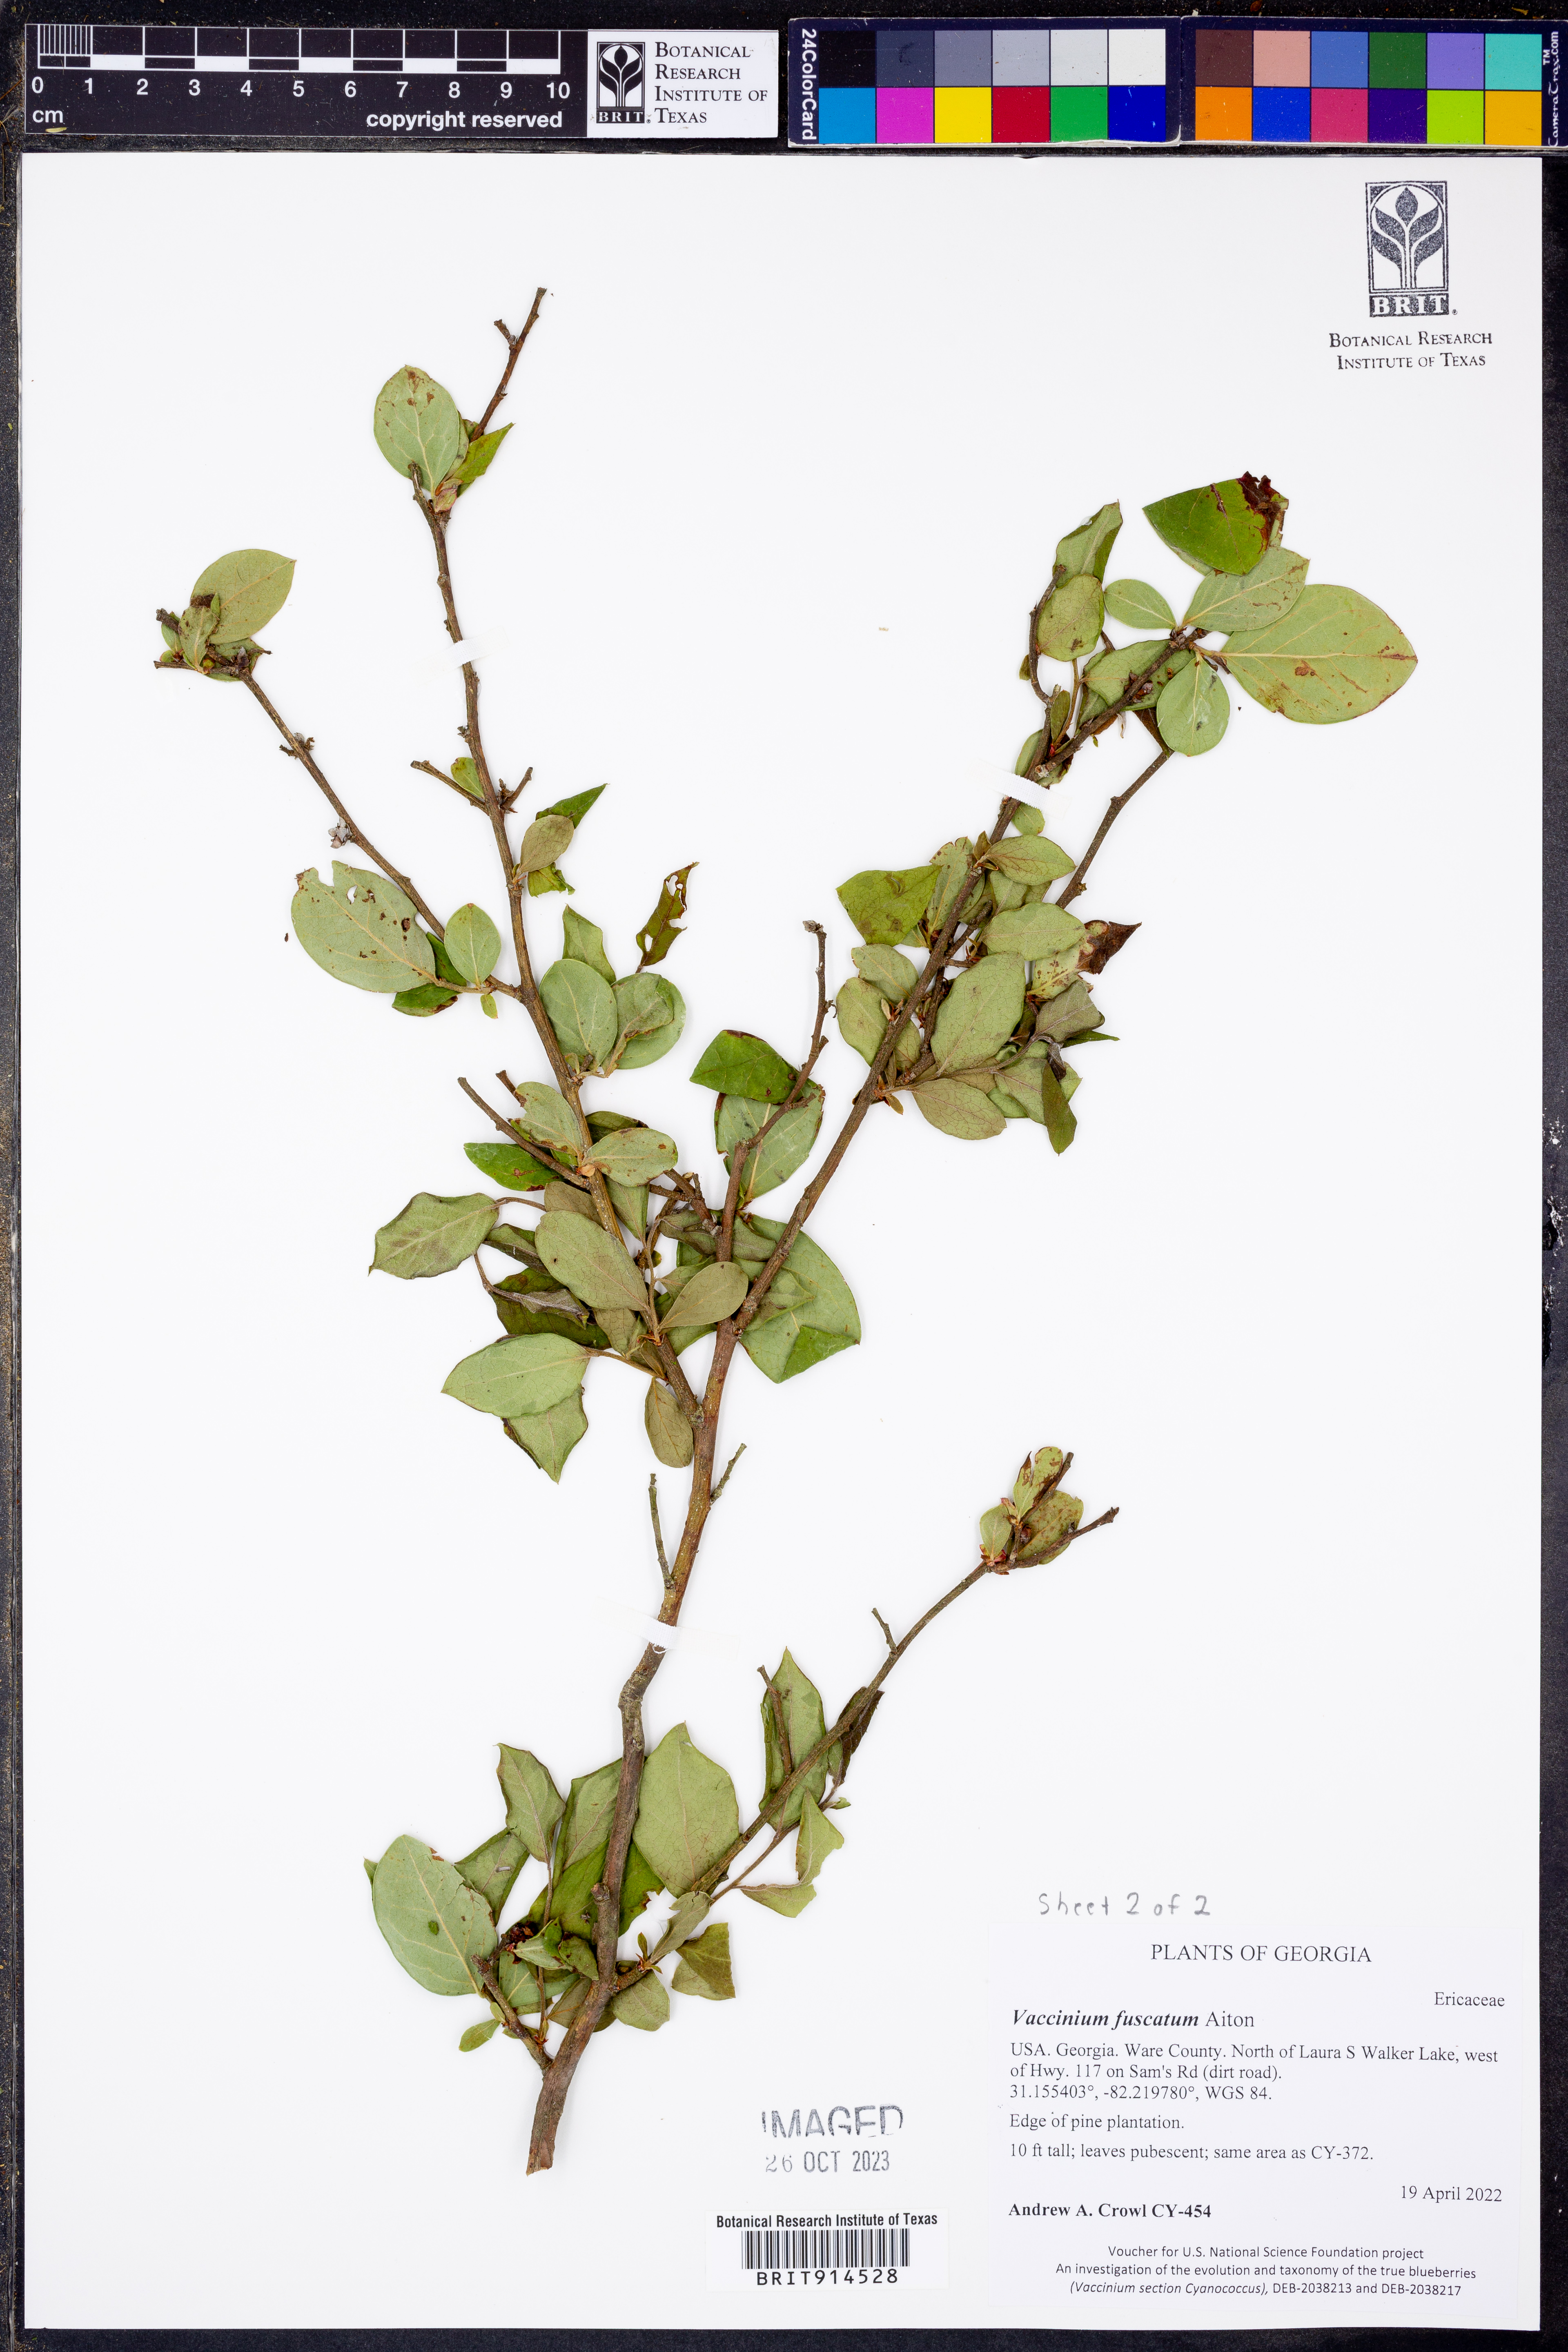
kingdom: Plantae
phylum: Tracheophyta
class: Magnoliopsida
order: Ericales
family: Ericaceae
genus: Vaccinium
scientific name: Vaccinium corymbosum
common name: Blueberry
